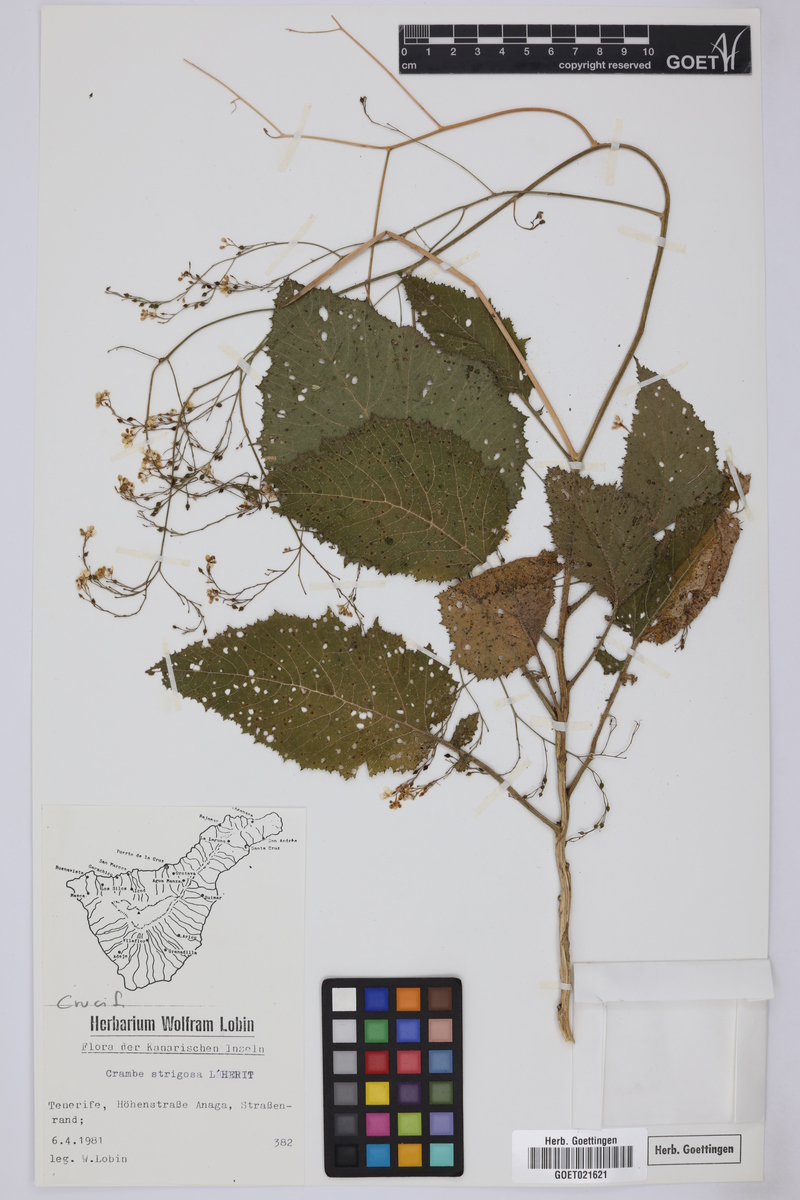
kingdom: Plantae
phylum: Tracheophyta
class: Magnoliopsida
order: Brassicales
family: Brassicaceae
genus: Crambe
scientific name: Crambe strigosa
